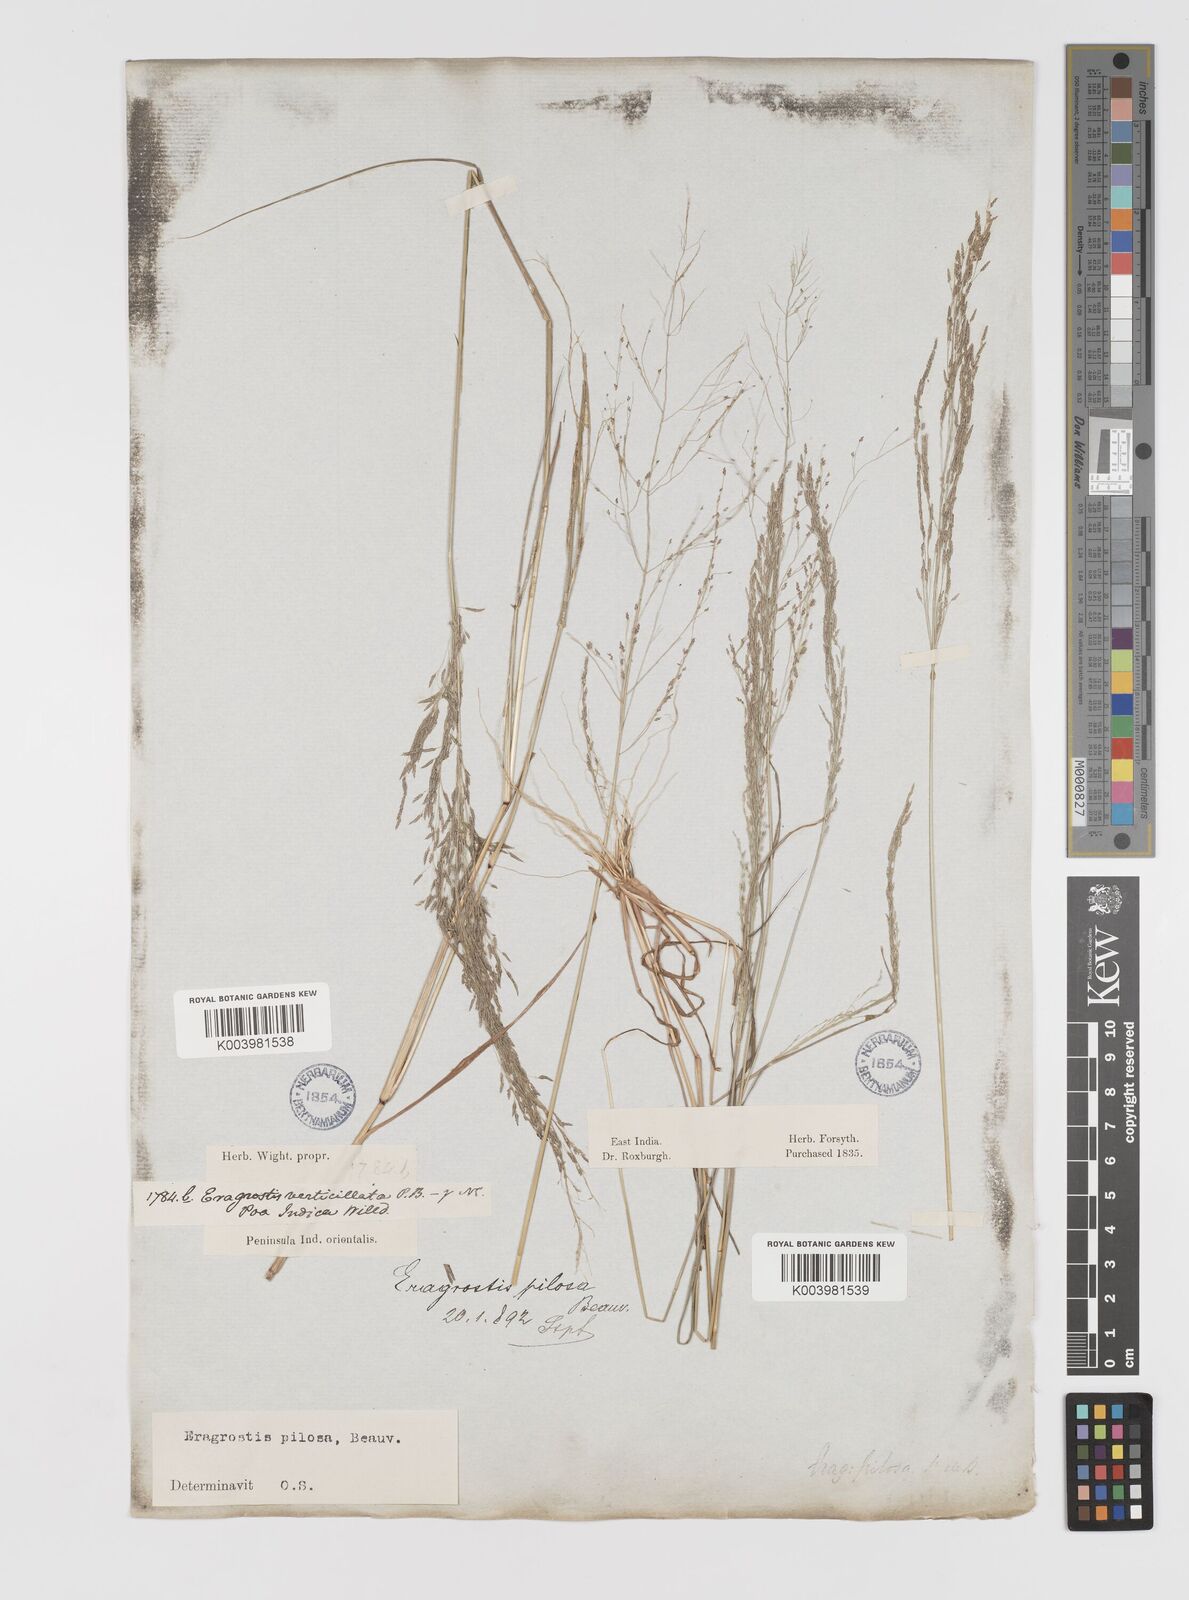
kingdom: Plantae
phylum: Tracheophyta
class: Liliopsida
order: Poales
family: Poaceae
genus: Eragrostis
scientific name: Eragrostis pilosa
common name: Indian lovegrass
